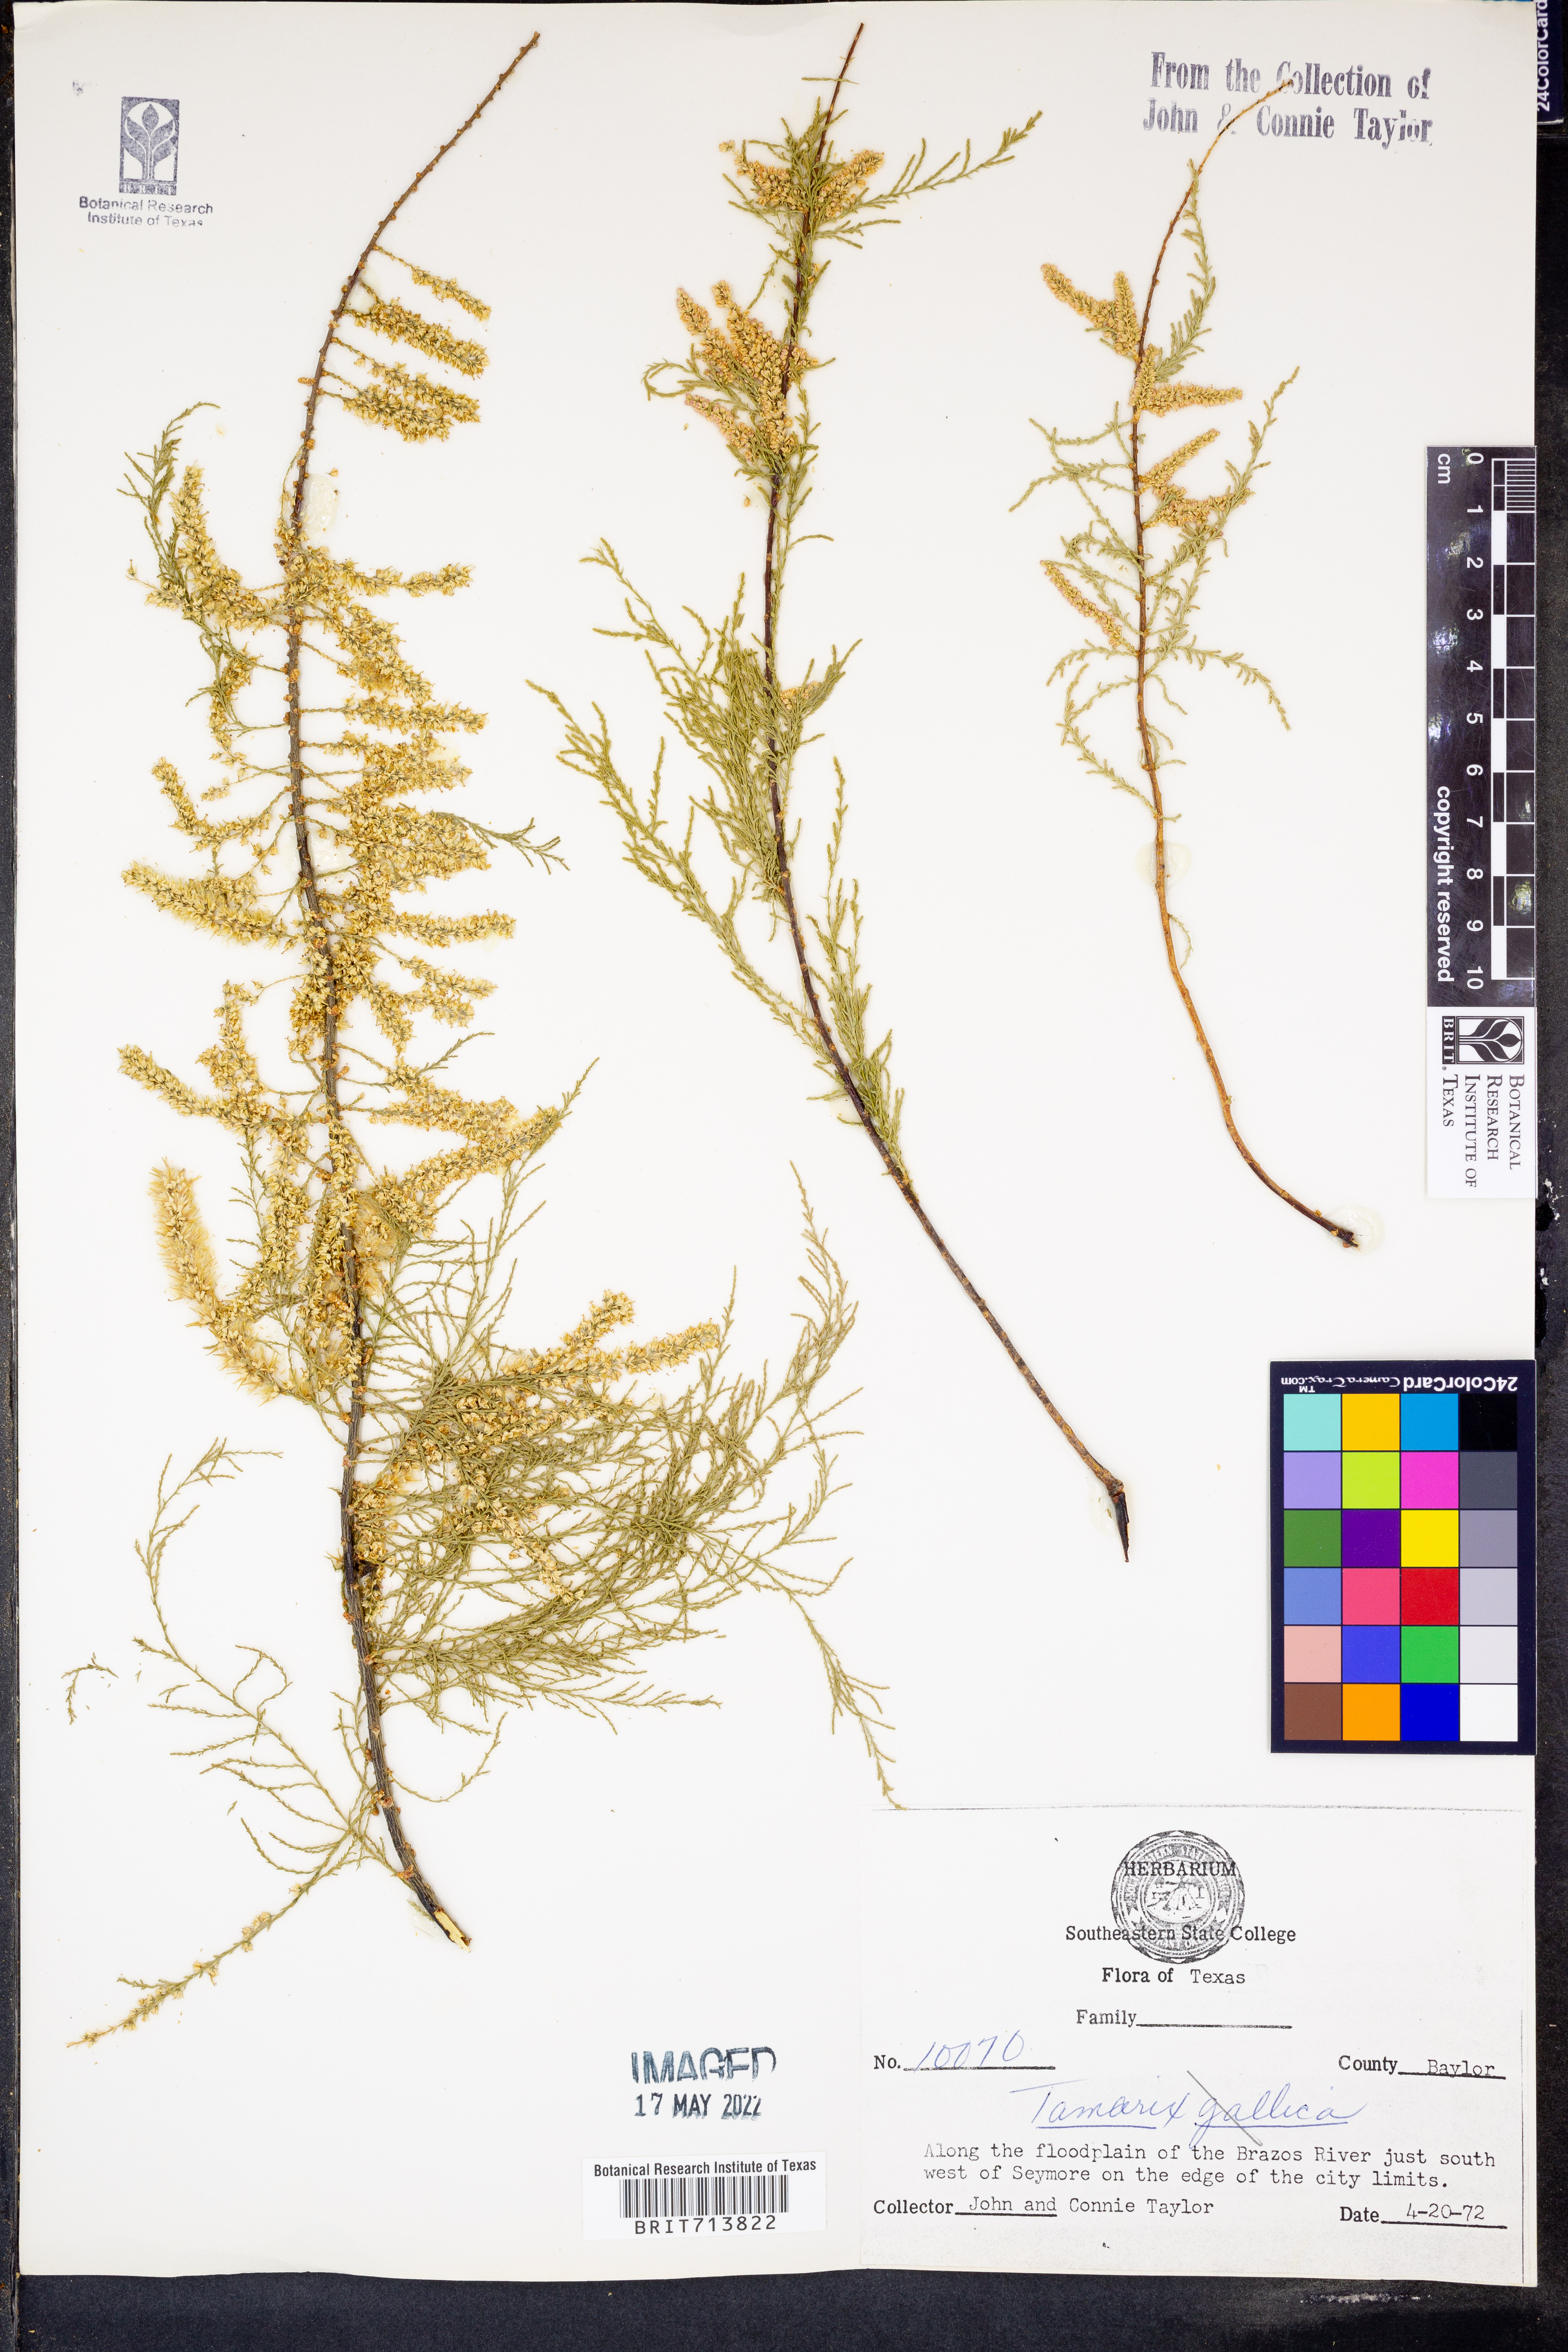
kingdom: Plantae
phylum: Tracheophyta
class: Magnoliopsida
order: Caryophyllales
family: Tamaricaceae
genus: Tamarix
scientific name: Tamarix gallica
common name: Tamarisk
